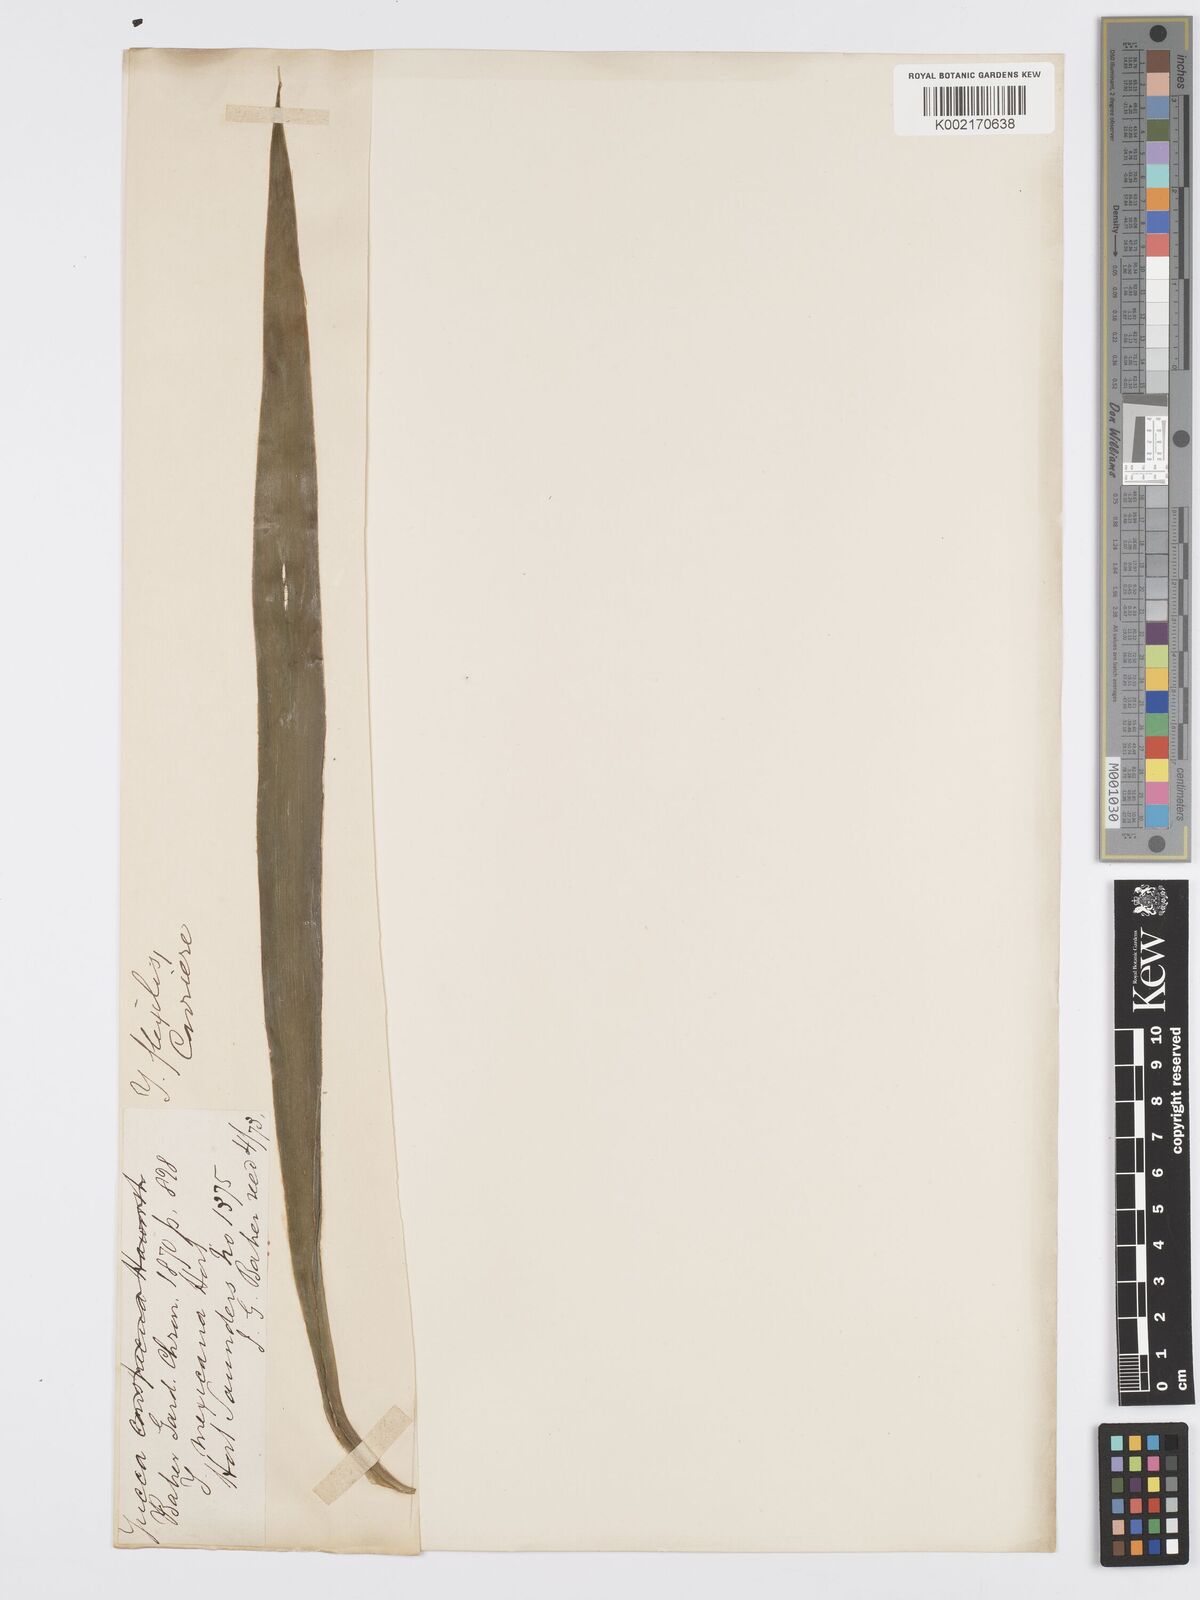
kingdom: Plantae
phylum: Tracheophyta
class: Liliopsida
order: Asparagales
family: Asparagaceae
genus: Yucca
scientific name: Yucca gloriosa
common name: Spanish-dagger
